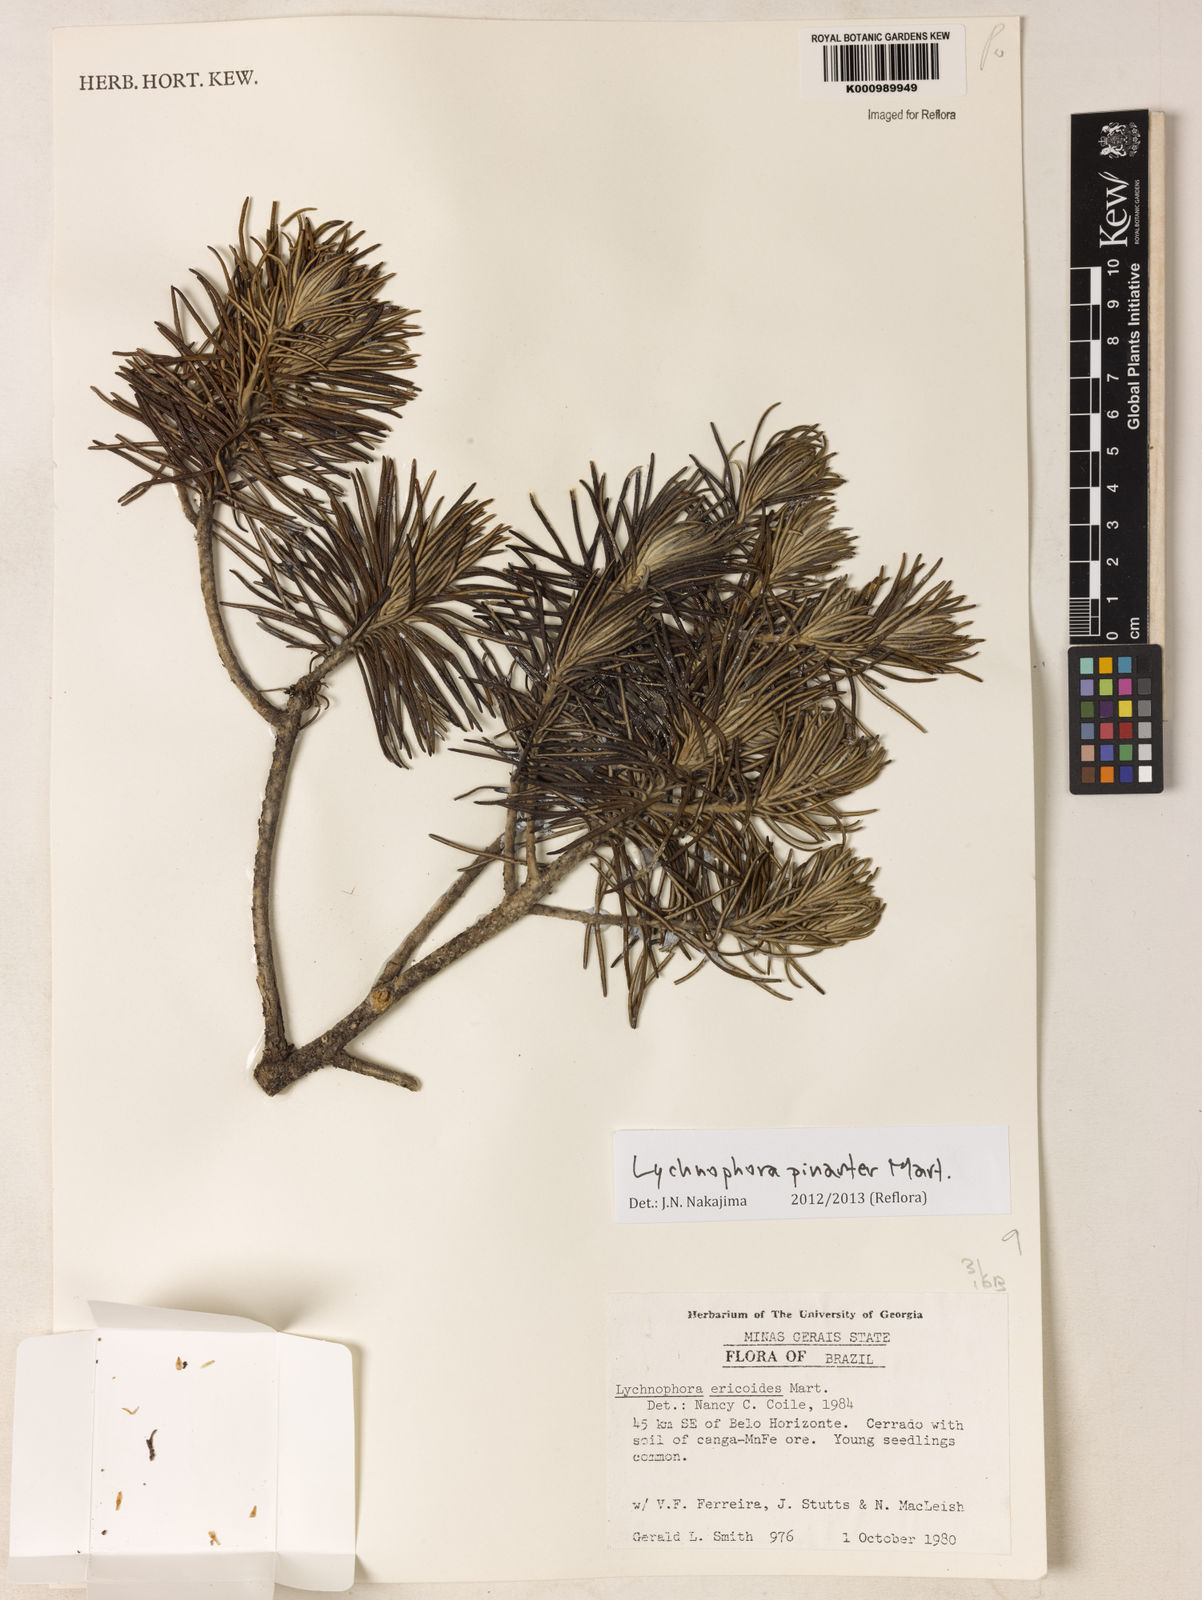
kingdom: Plantae
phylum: Tracheophyta
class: Magnoliopsida
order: Asterales
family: Asteraceae
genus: Lychnophora
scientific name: Lychnophora pinaster
